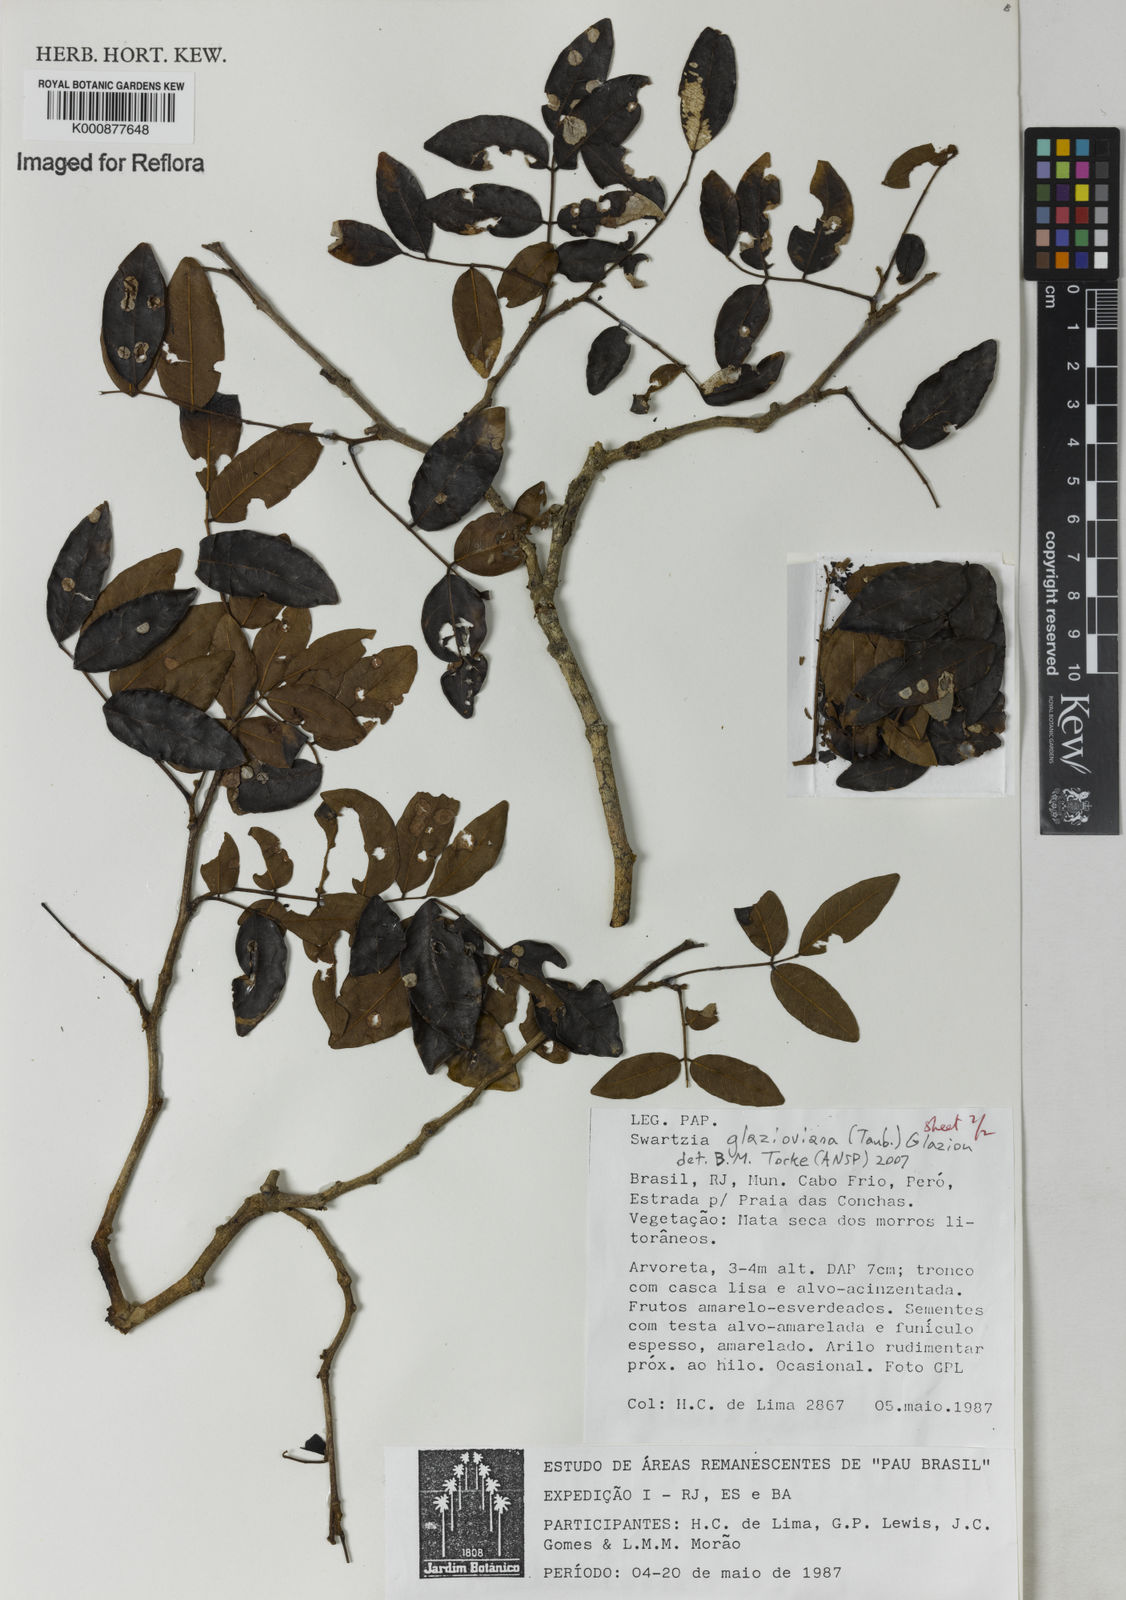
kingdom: Plantae
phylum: Tracheophyta
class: Magnoliopsida
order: Fabales
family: Fabaceae
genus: Swartzia
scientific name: Swartzia glazioviana
